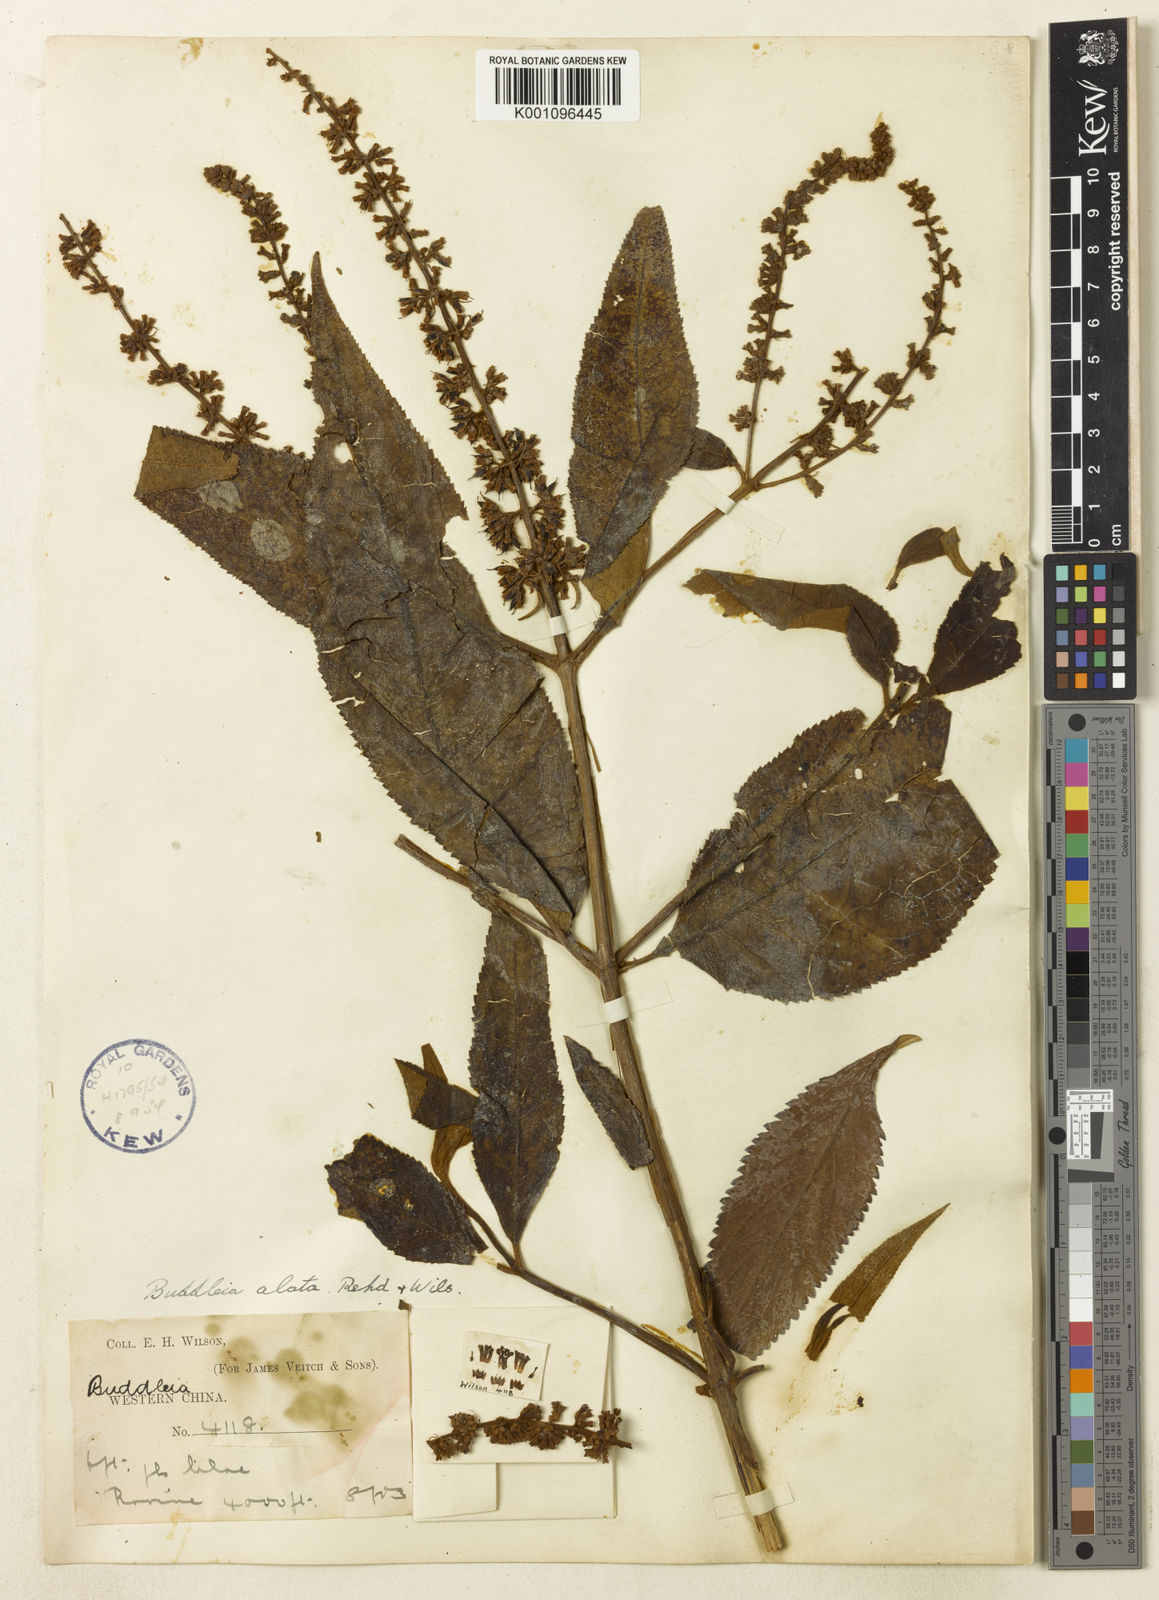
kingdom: Plantae
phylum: Tracheophyta
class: Magnoliopsida
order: Lamiales
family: Scrophulariaceae
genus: Buddleja
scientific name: Buddleja alata
